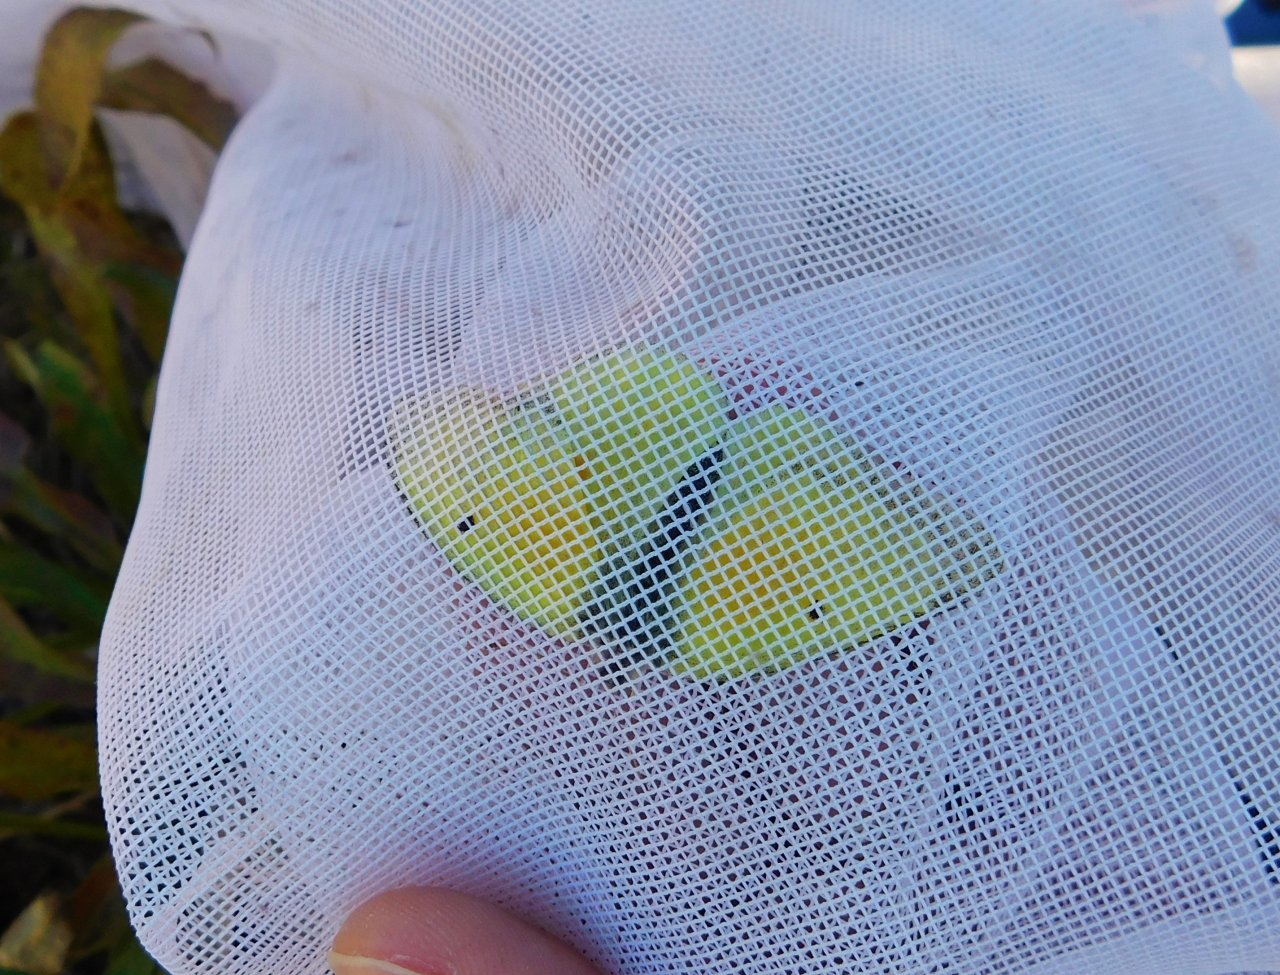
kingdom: Animalia
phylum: Arthropoda
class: Insecta
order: Lepidoptera
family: Pieridae
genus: Colias
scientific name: Colias eurytheme
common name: Orange Sulphur
